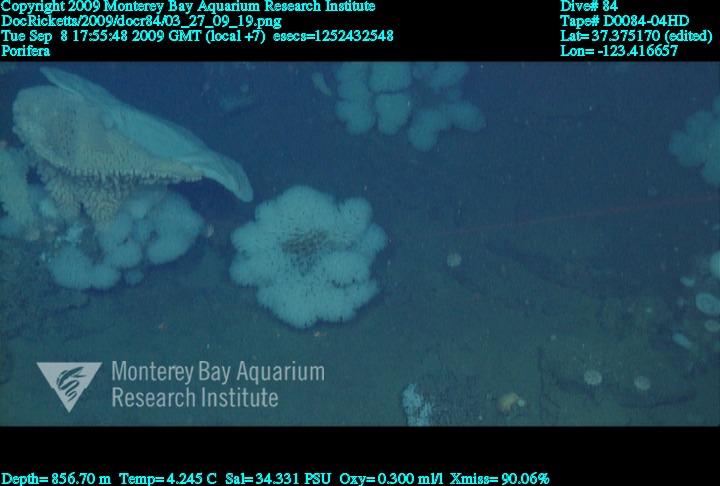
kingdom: Animalia
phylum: Porifera
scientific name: Porifera
